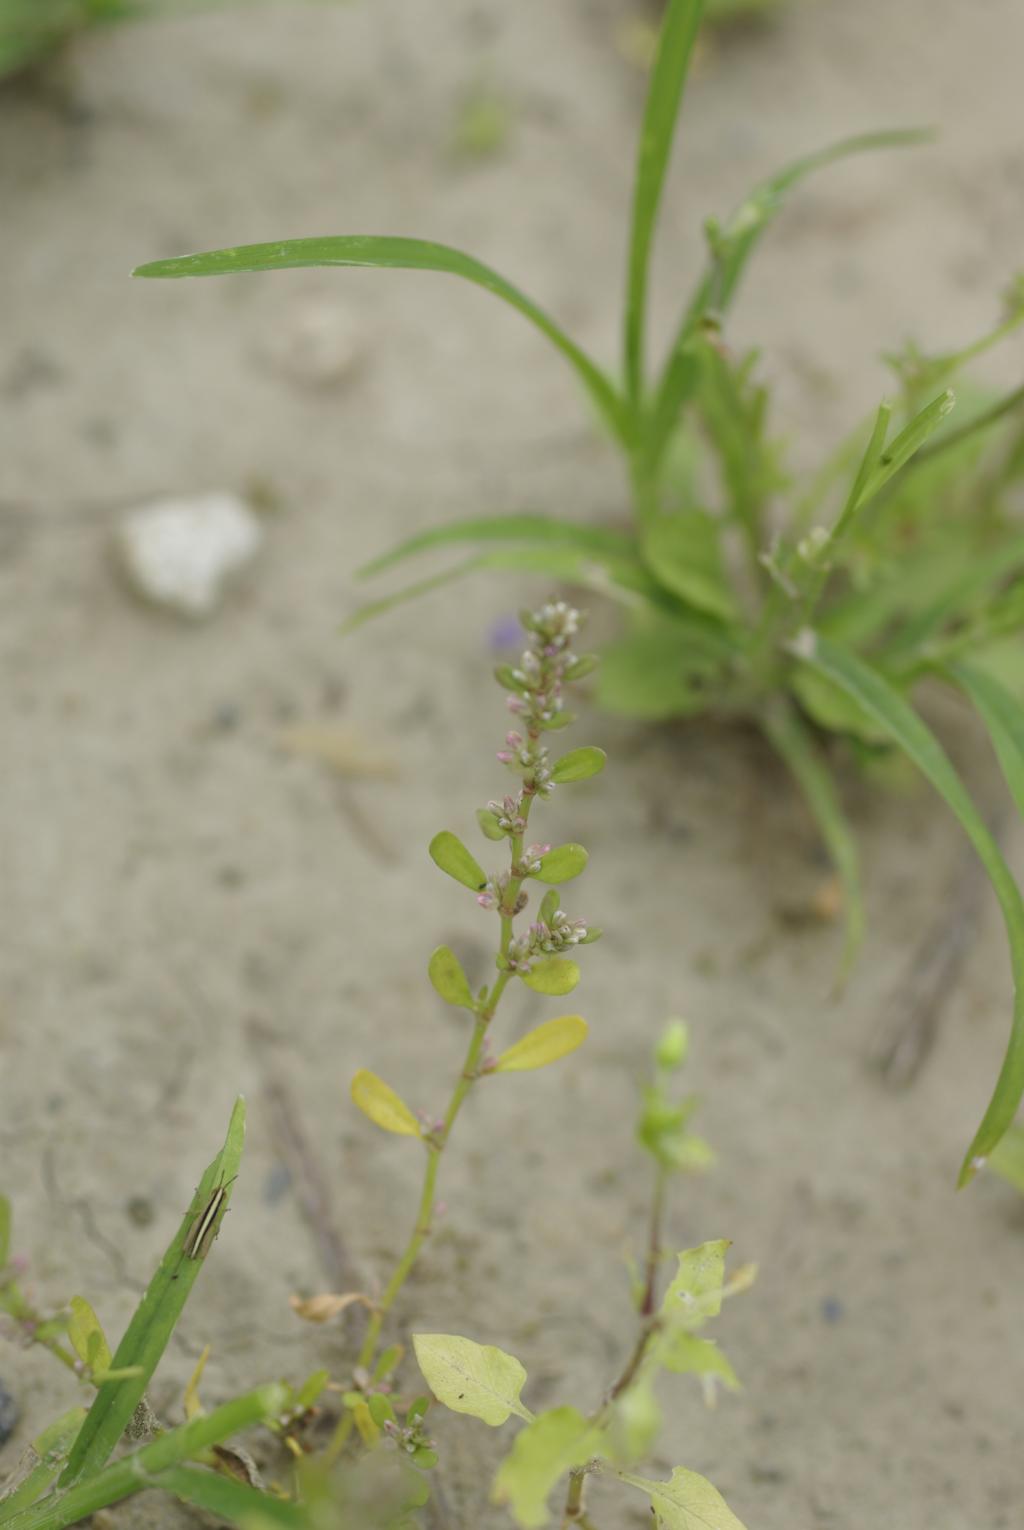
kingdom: Plantae
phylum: Tracheophyta
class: Magnoliopsida
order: Caryophyllales
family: Polygonaceae
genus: Polygonum
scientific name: Polygonum plebeium
